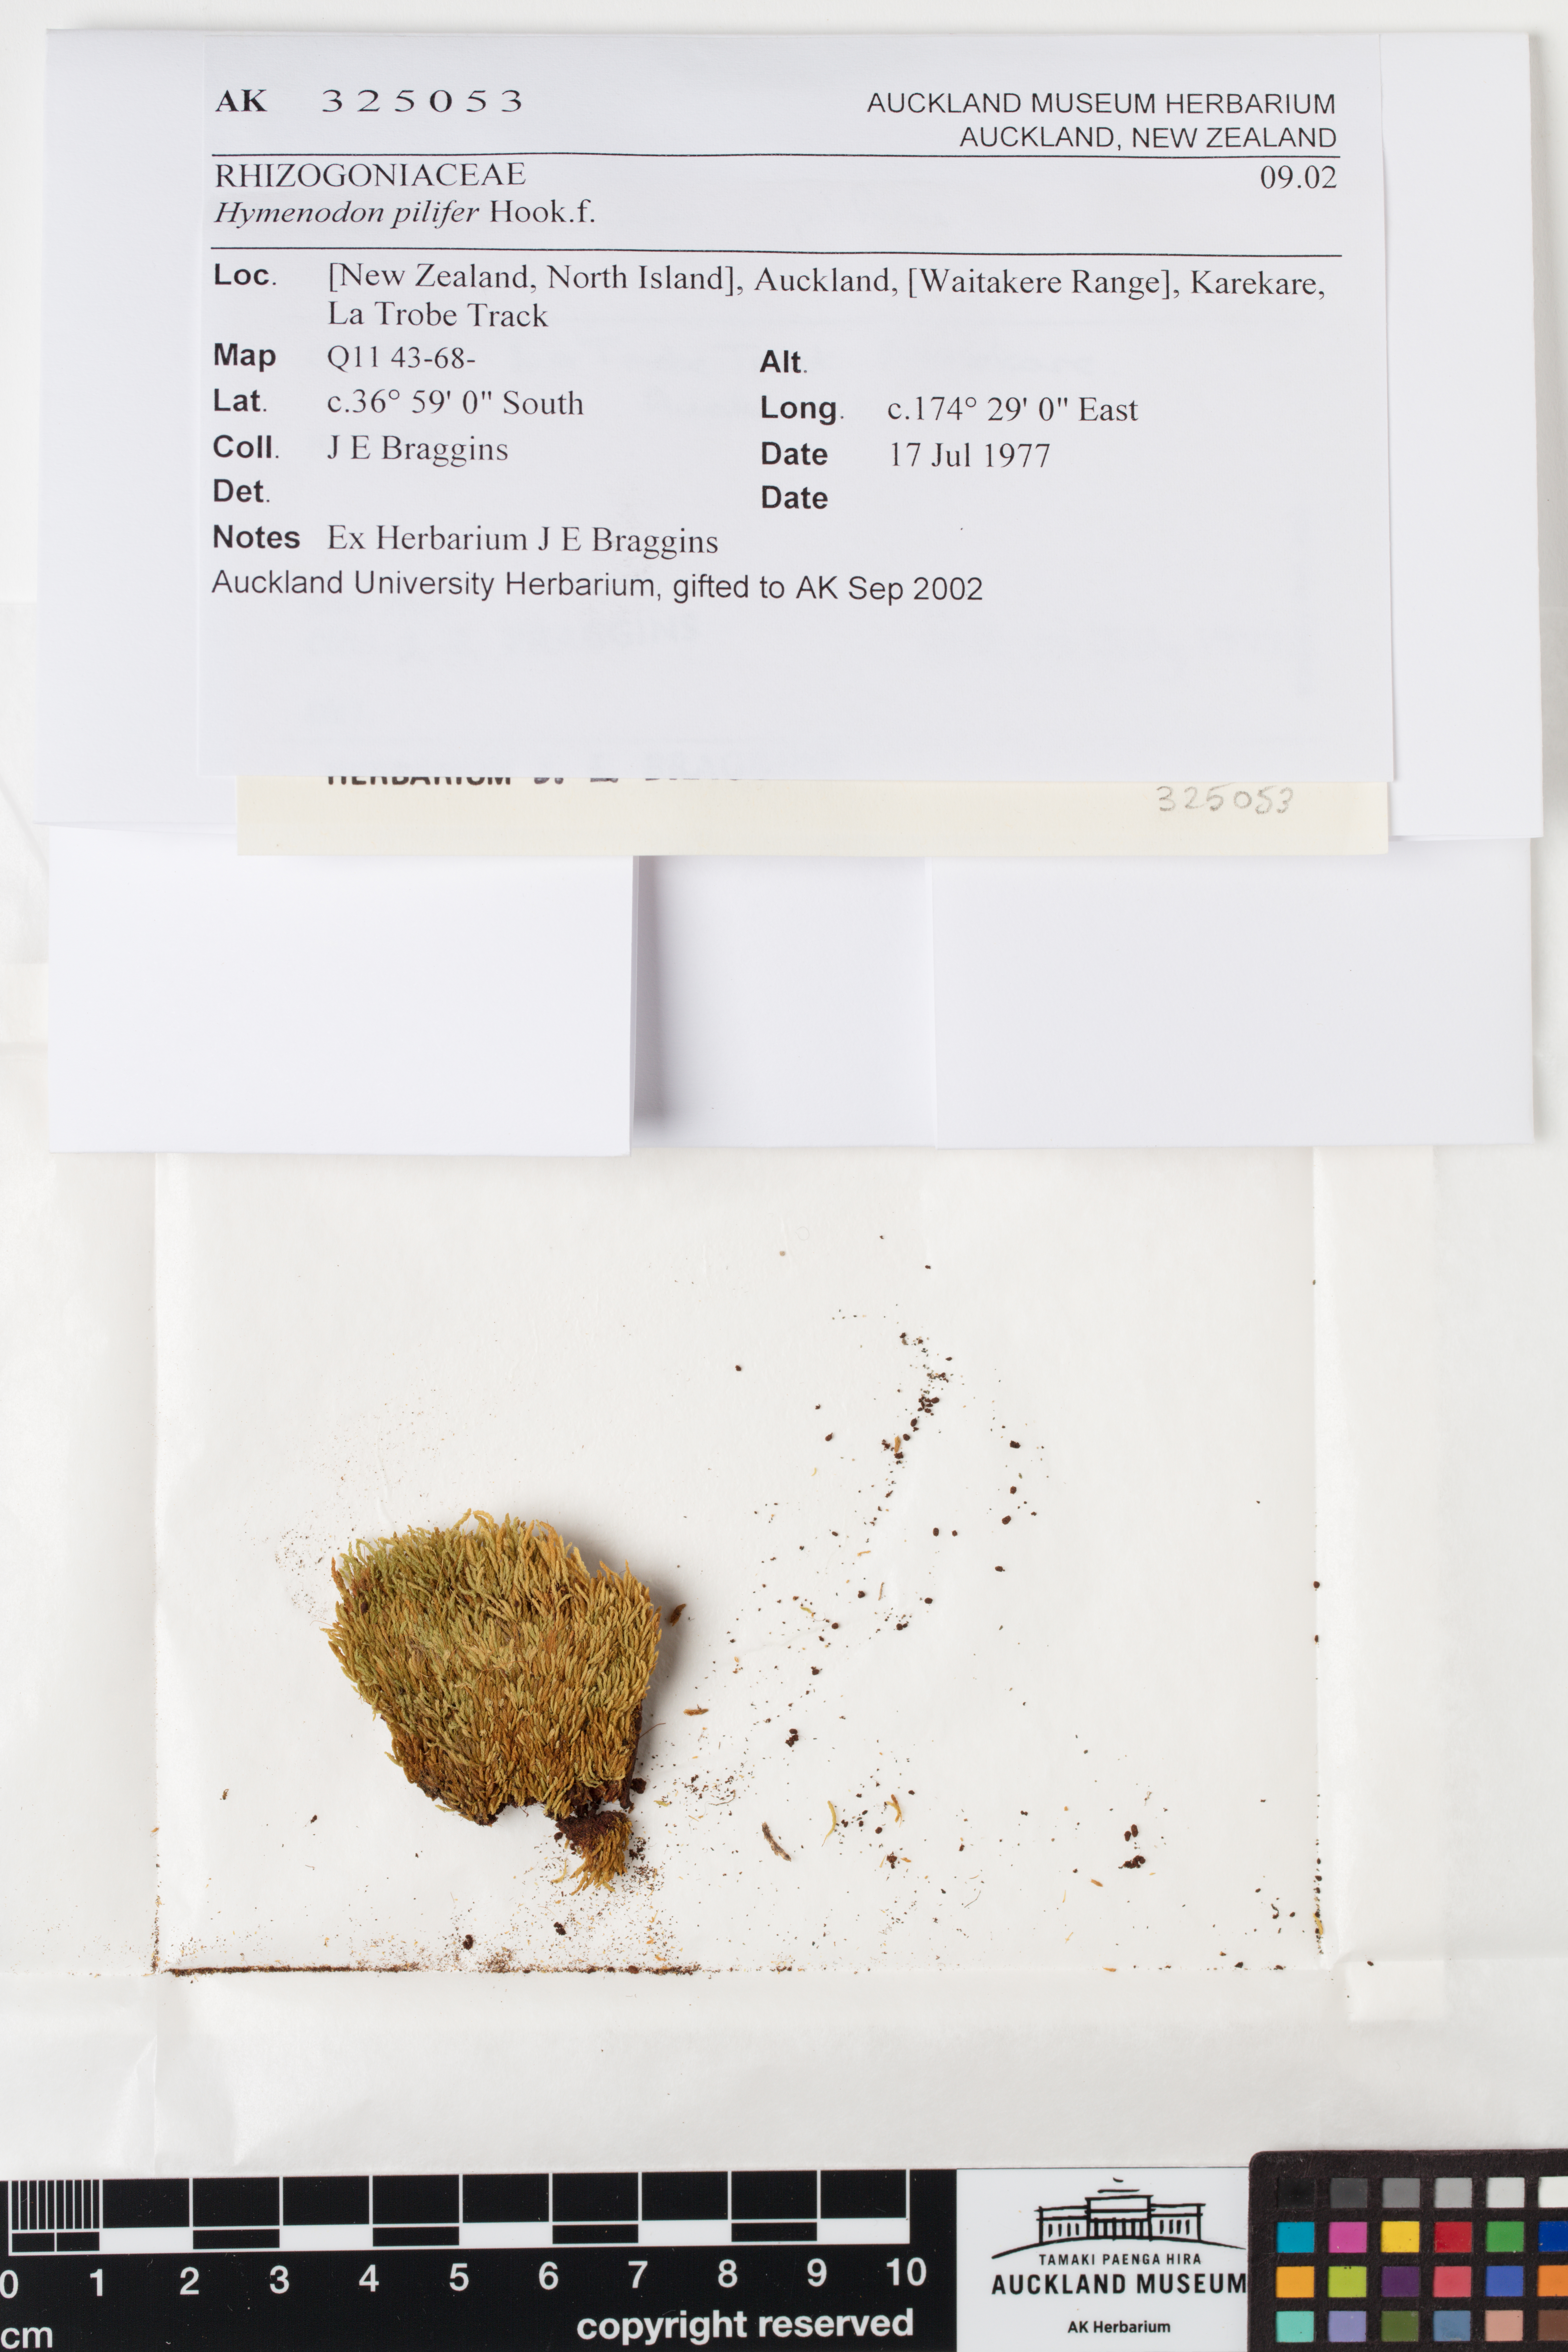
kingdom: Plantae
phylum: Bryophyta
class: Bryopsida
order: Orthodontiales
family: Orthodontiaceae
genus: Hymenodon
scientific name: Hymenodon pilifer
